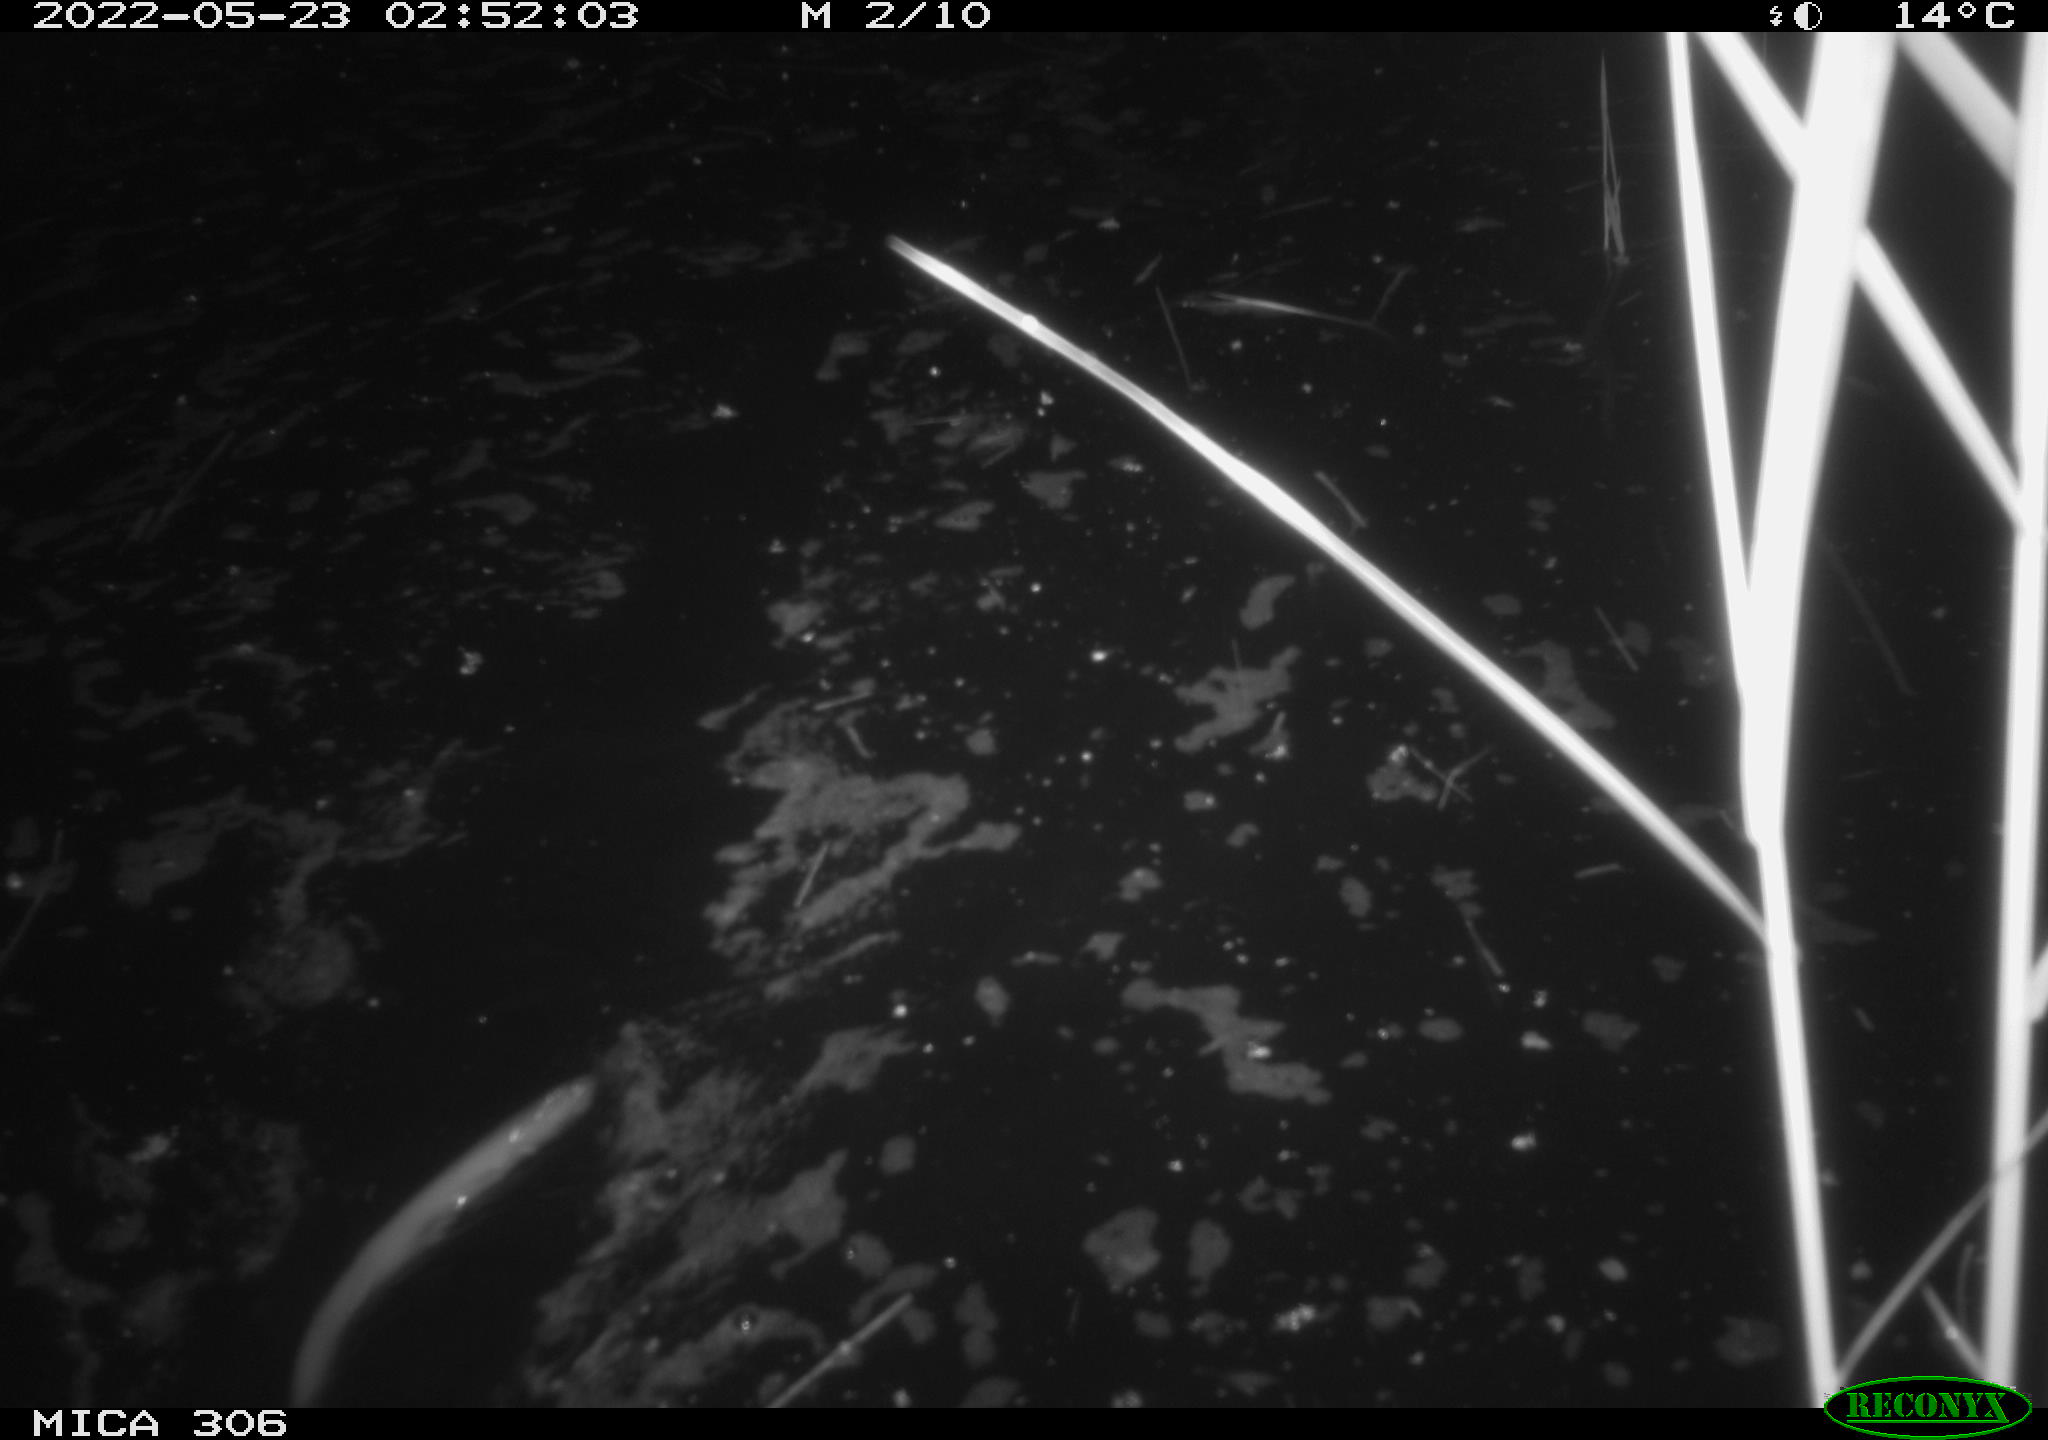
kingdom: Animalia
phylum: Chordata
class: Mammalia
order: Rodentia
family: Cricetidae
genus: Ondatra
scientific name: Ondatra zibethicus
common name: Muskrat
